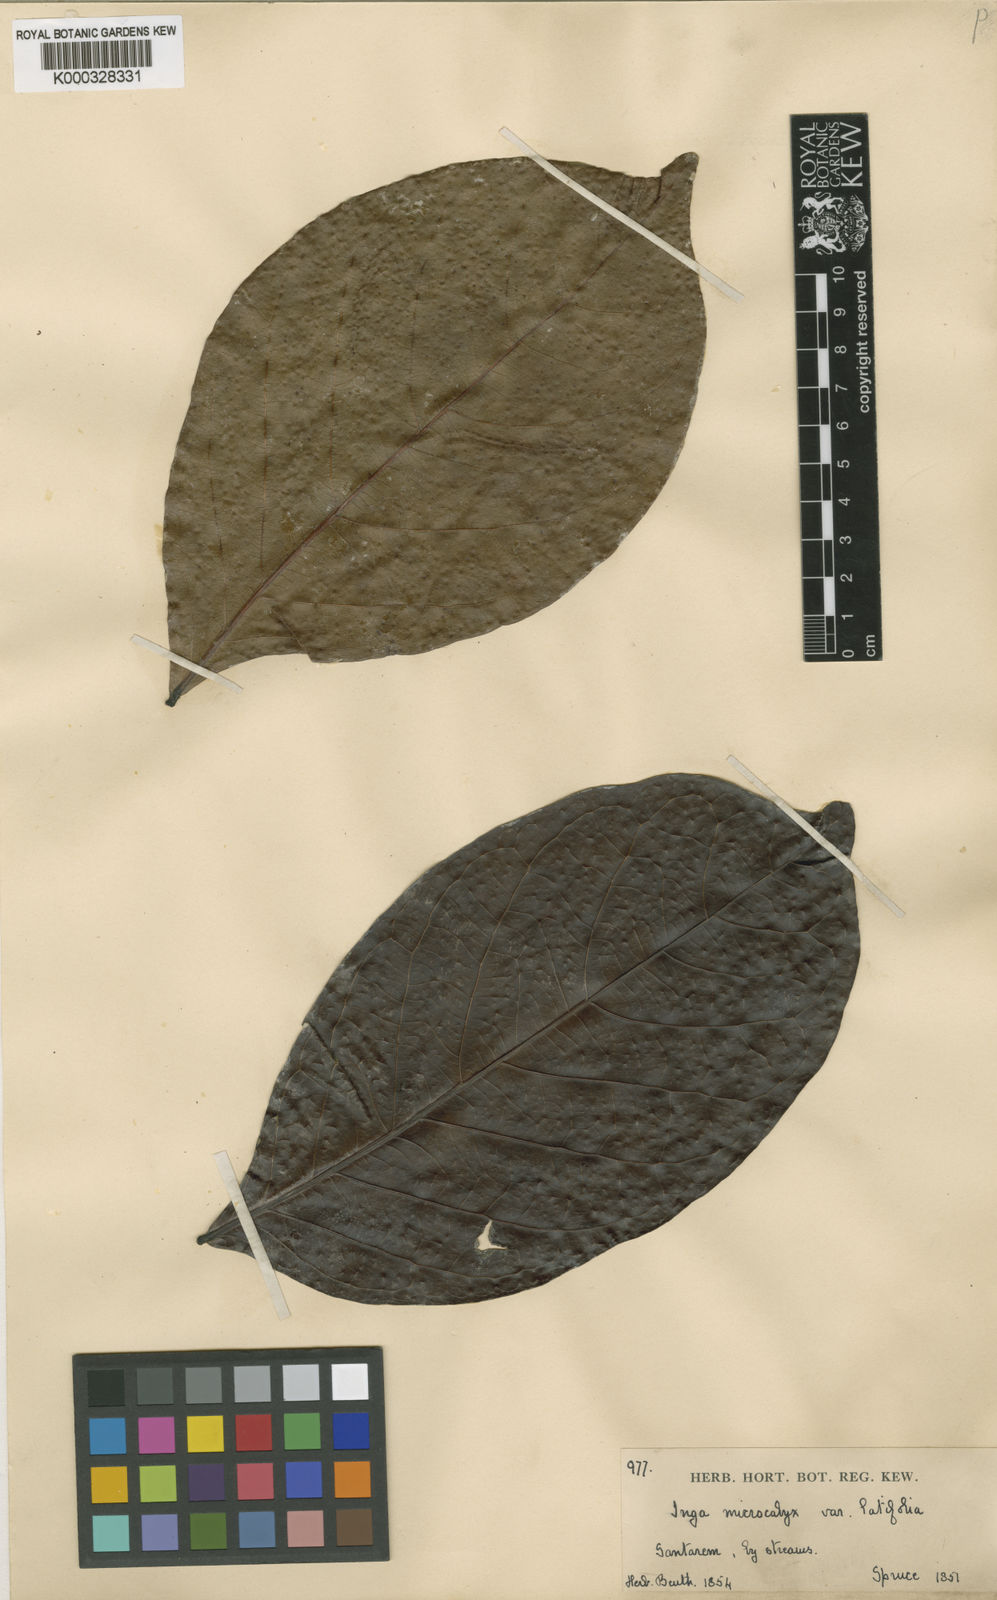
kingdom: Plantae
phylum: Tracheophyta
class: Magnoliopsida
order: Fabales
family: Fabaceae
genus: Inga
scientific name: Inga microcalyx
